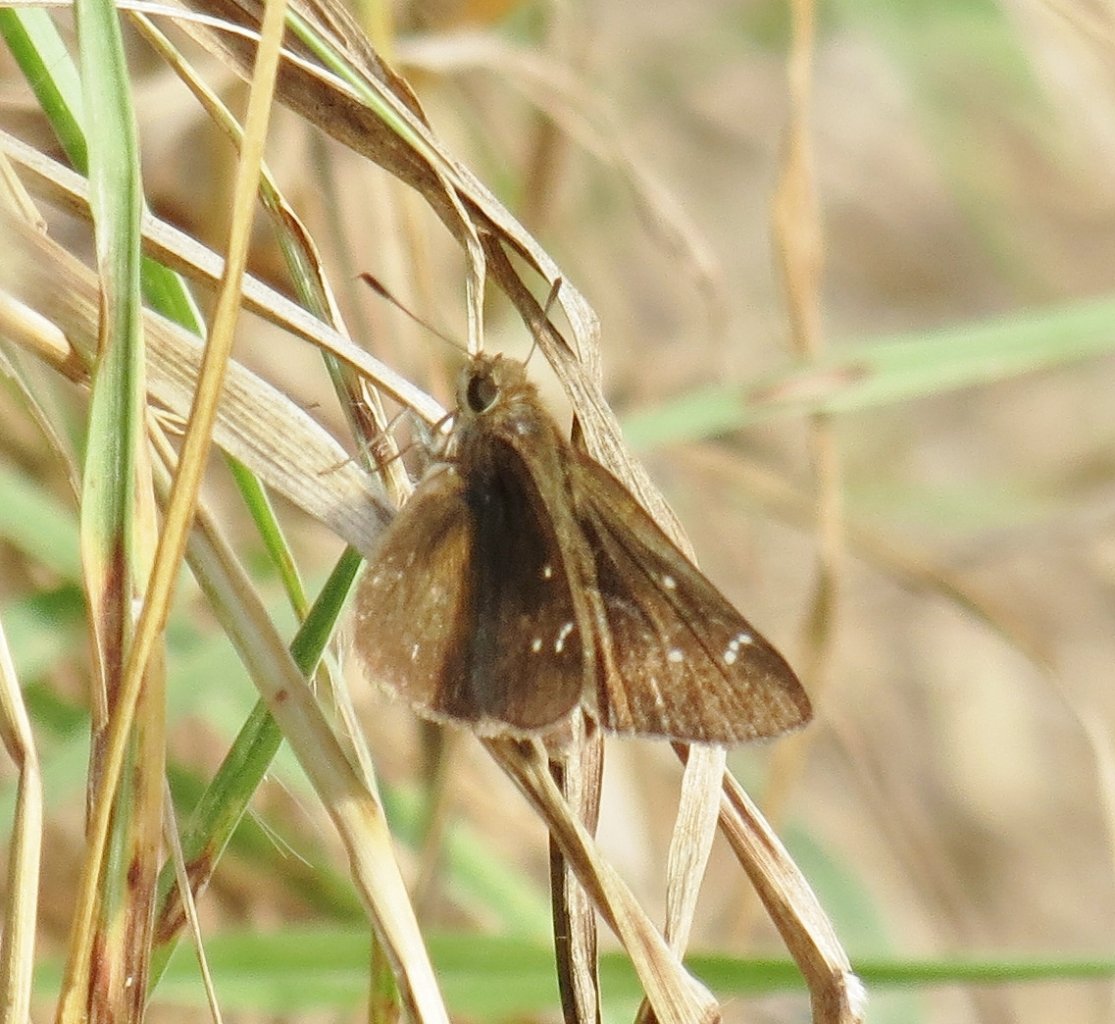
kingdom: Animalia
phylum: Arthropoda
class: Insecta
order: Lepidoptera
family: Hesperiidae
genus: Mastor
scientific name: Mastor nysa
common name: Nysa Roadside-Skipper
